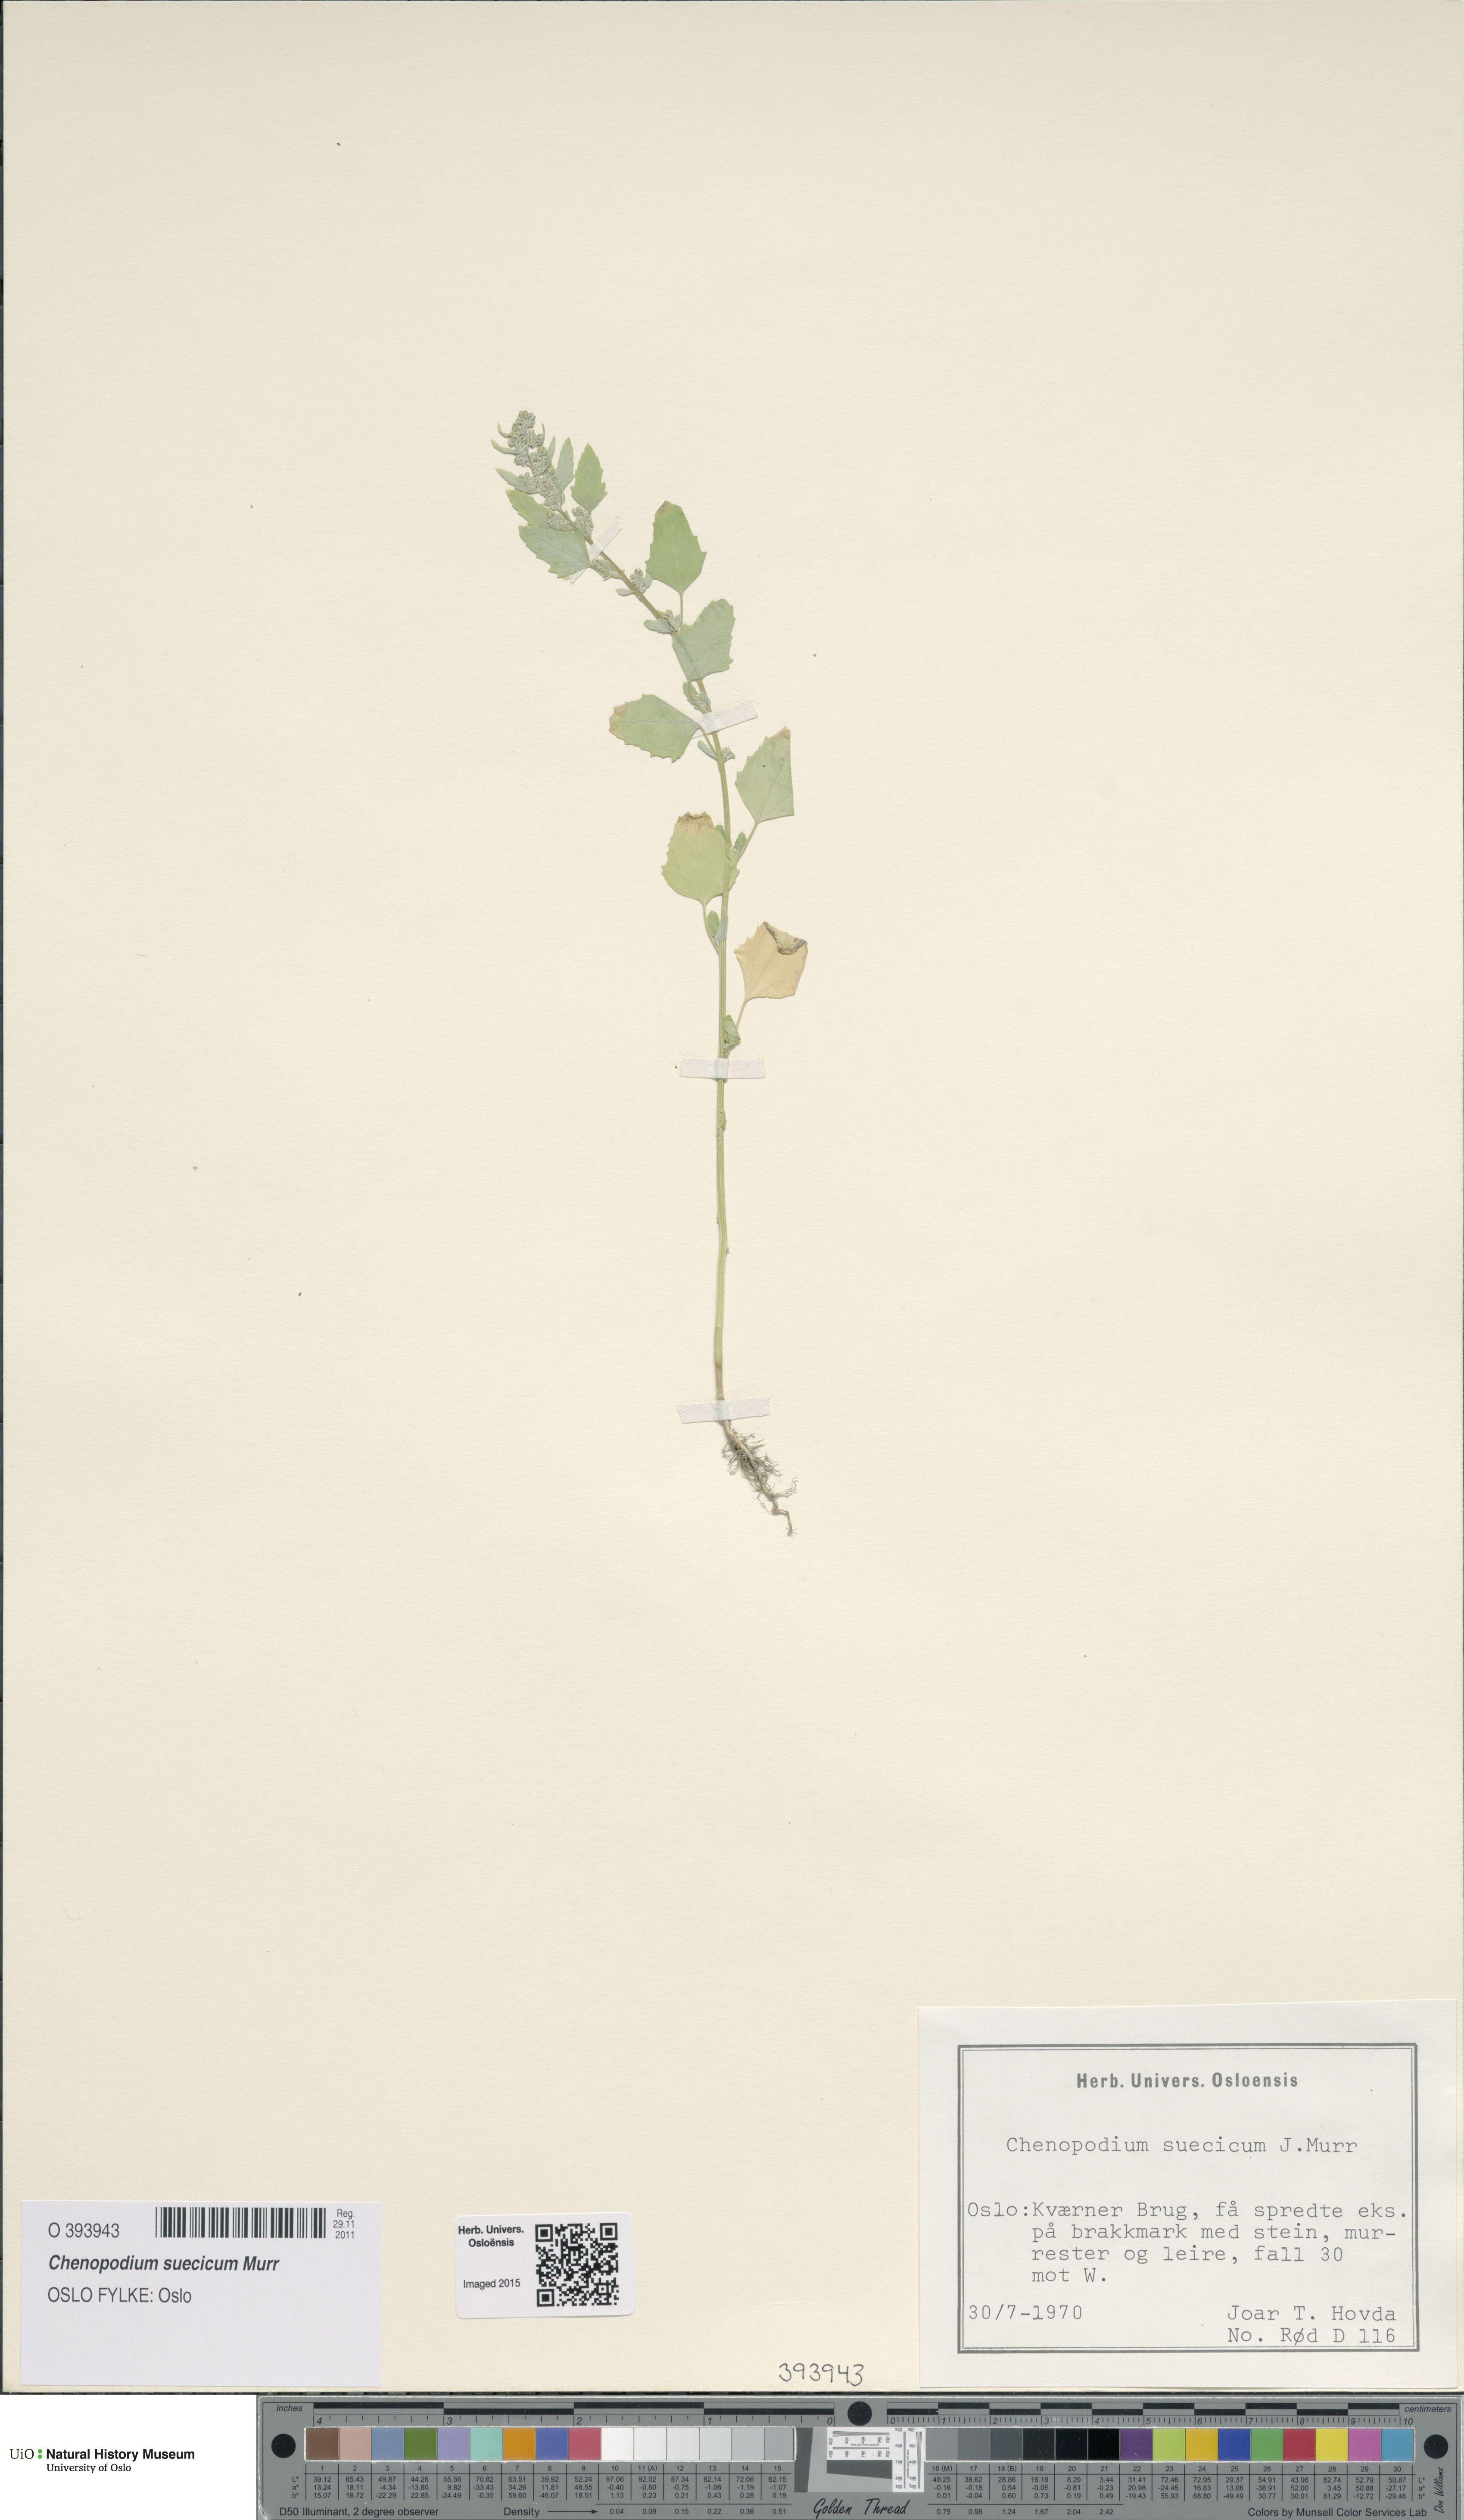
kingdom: Plantae
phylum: Tracheophyta
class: Magnoliopsida
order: Caryophyllales
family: Amaranthaceae
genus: Chenopodium
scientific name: Chenopodium suecicum
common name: Swedish goosefoot
